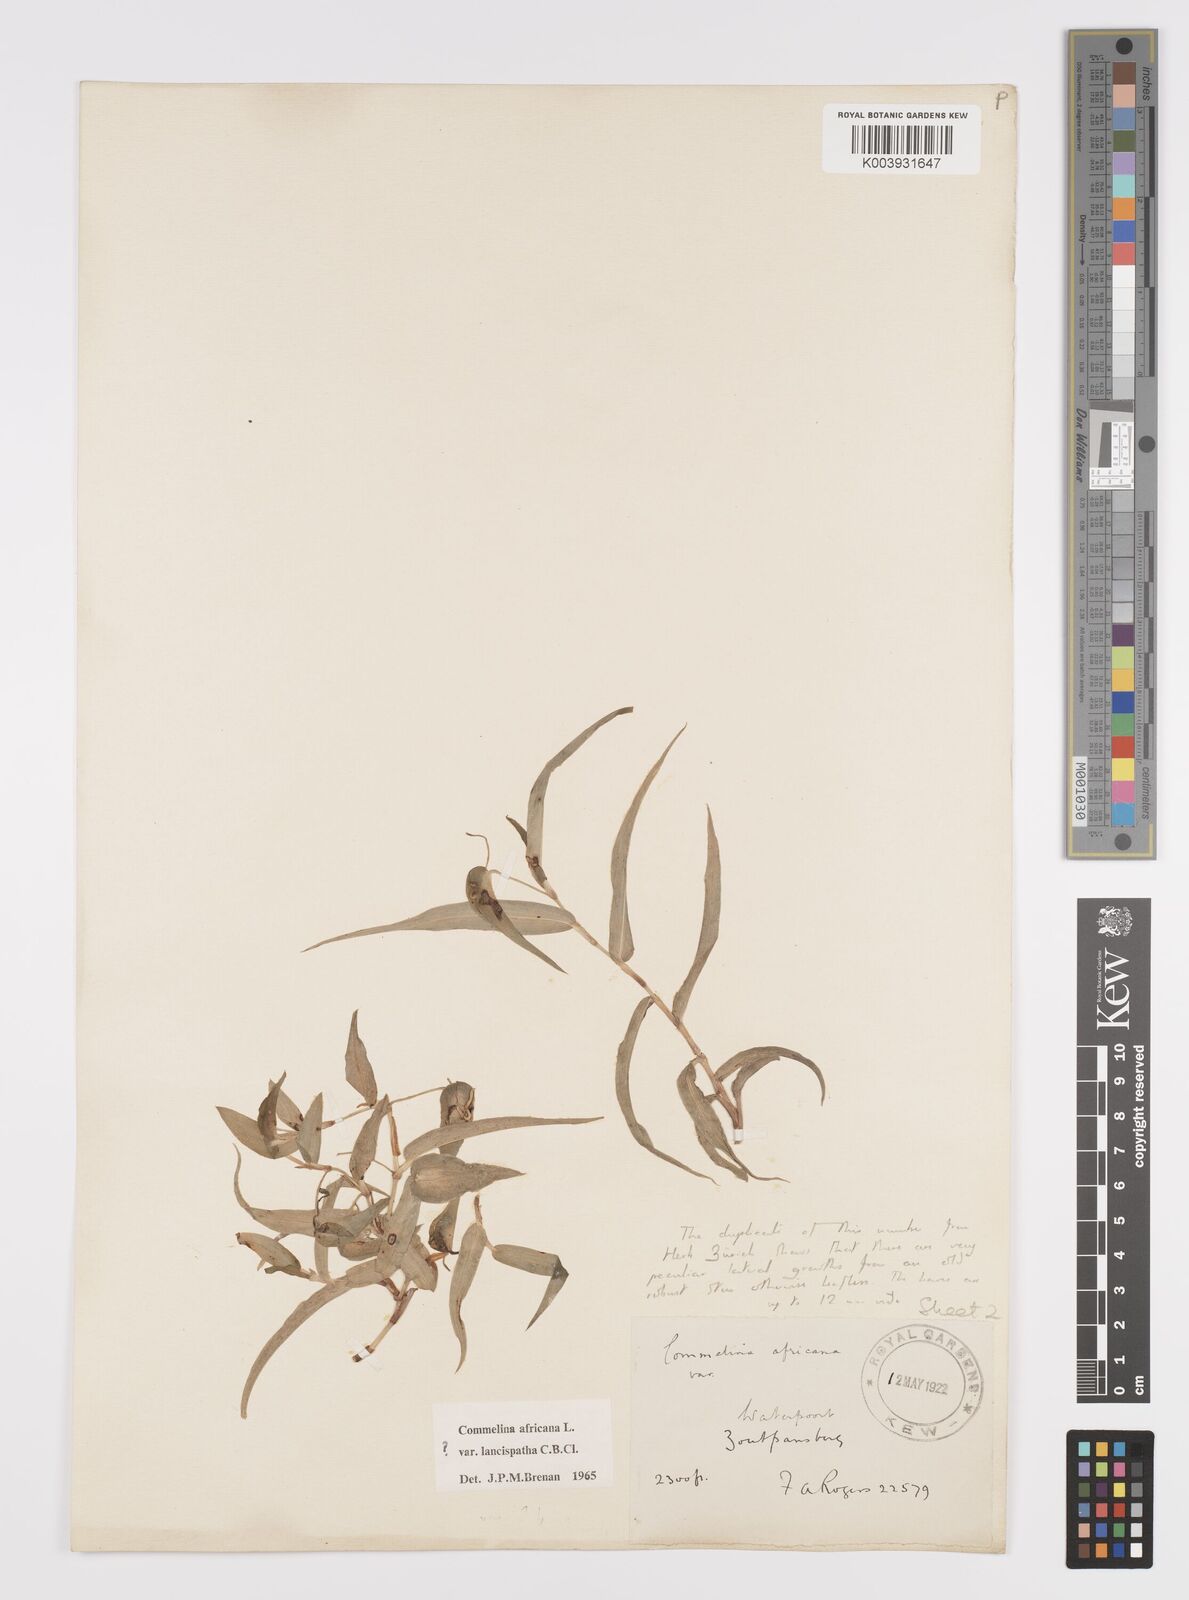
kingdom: Plantae
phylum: Tracheophyta
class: Liliopsida
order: Commelinales
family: Commelinaceae
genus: Commelina
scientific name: Commelina africana
